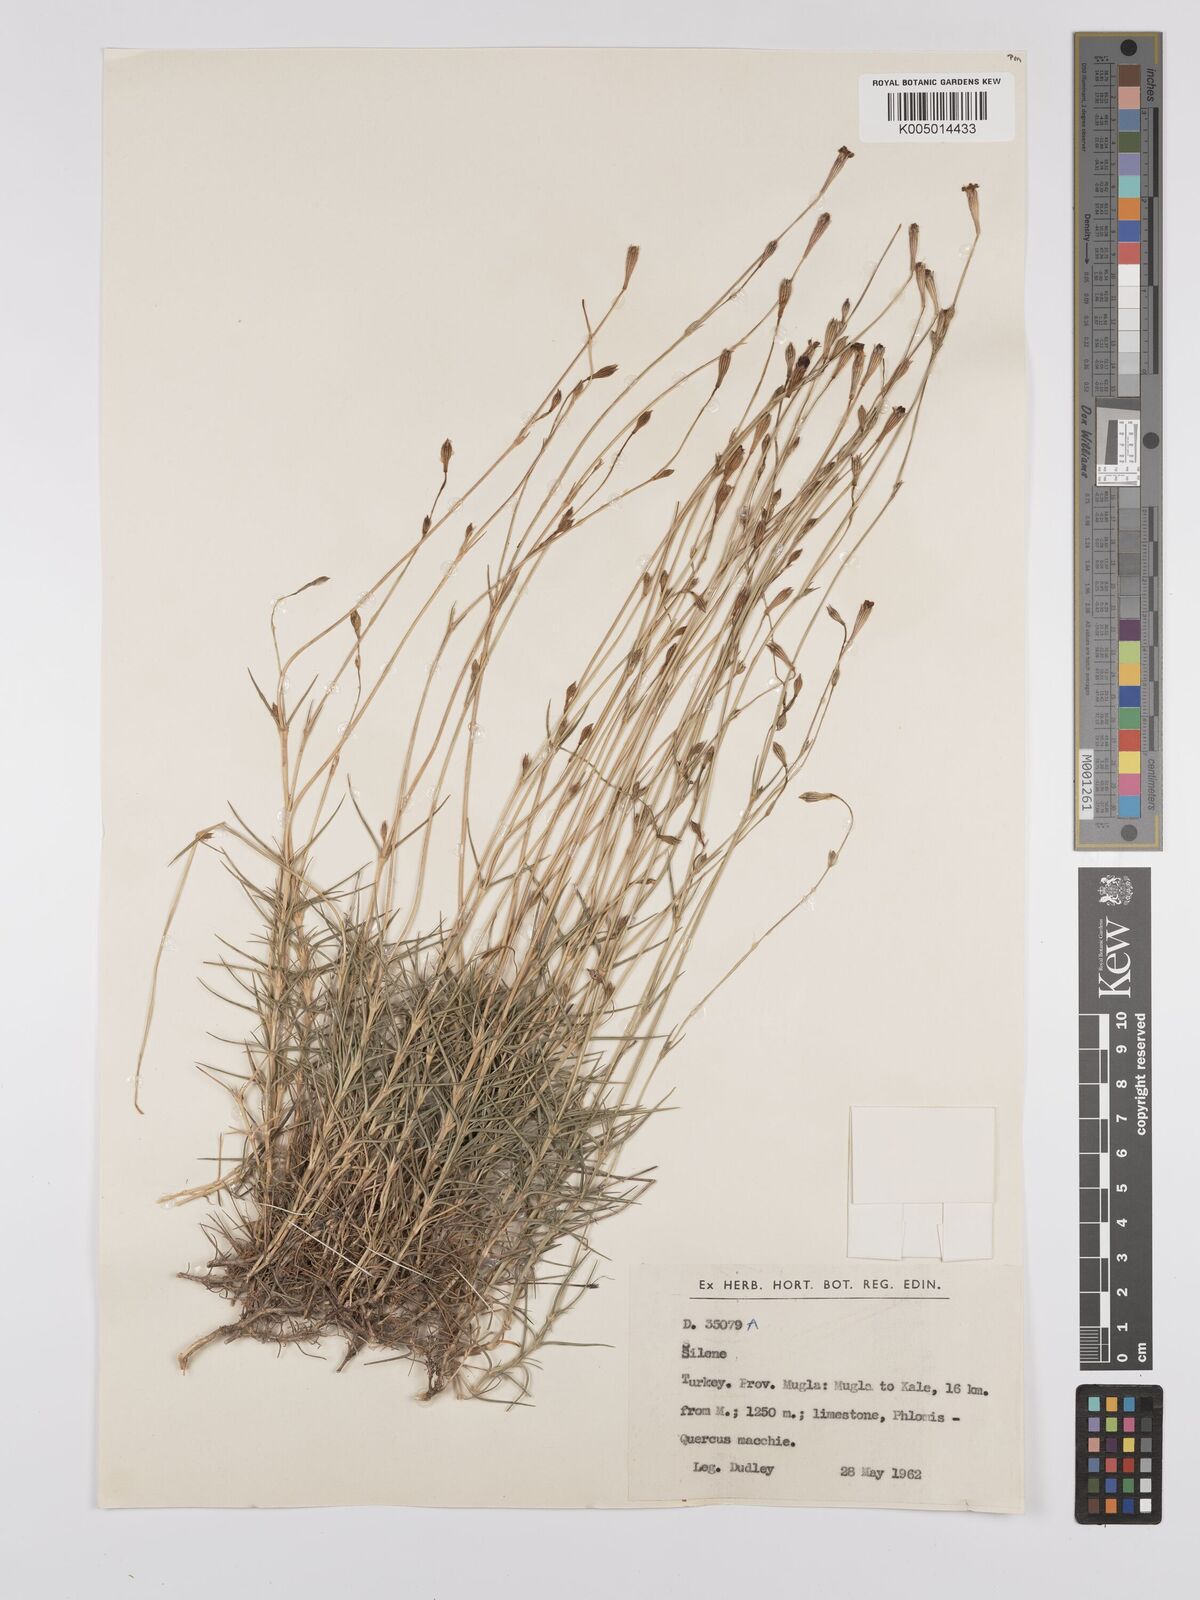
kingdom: Plantae
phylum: Tracheophyta
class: Magnoliopsida
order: Caryophyllales
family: Caryophyllaceae
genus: Silene
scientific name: Silene
